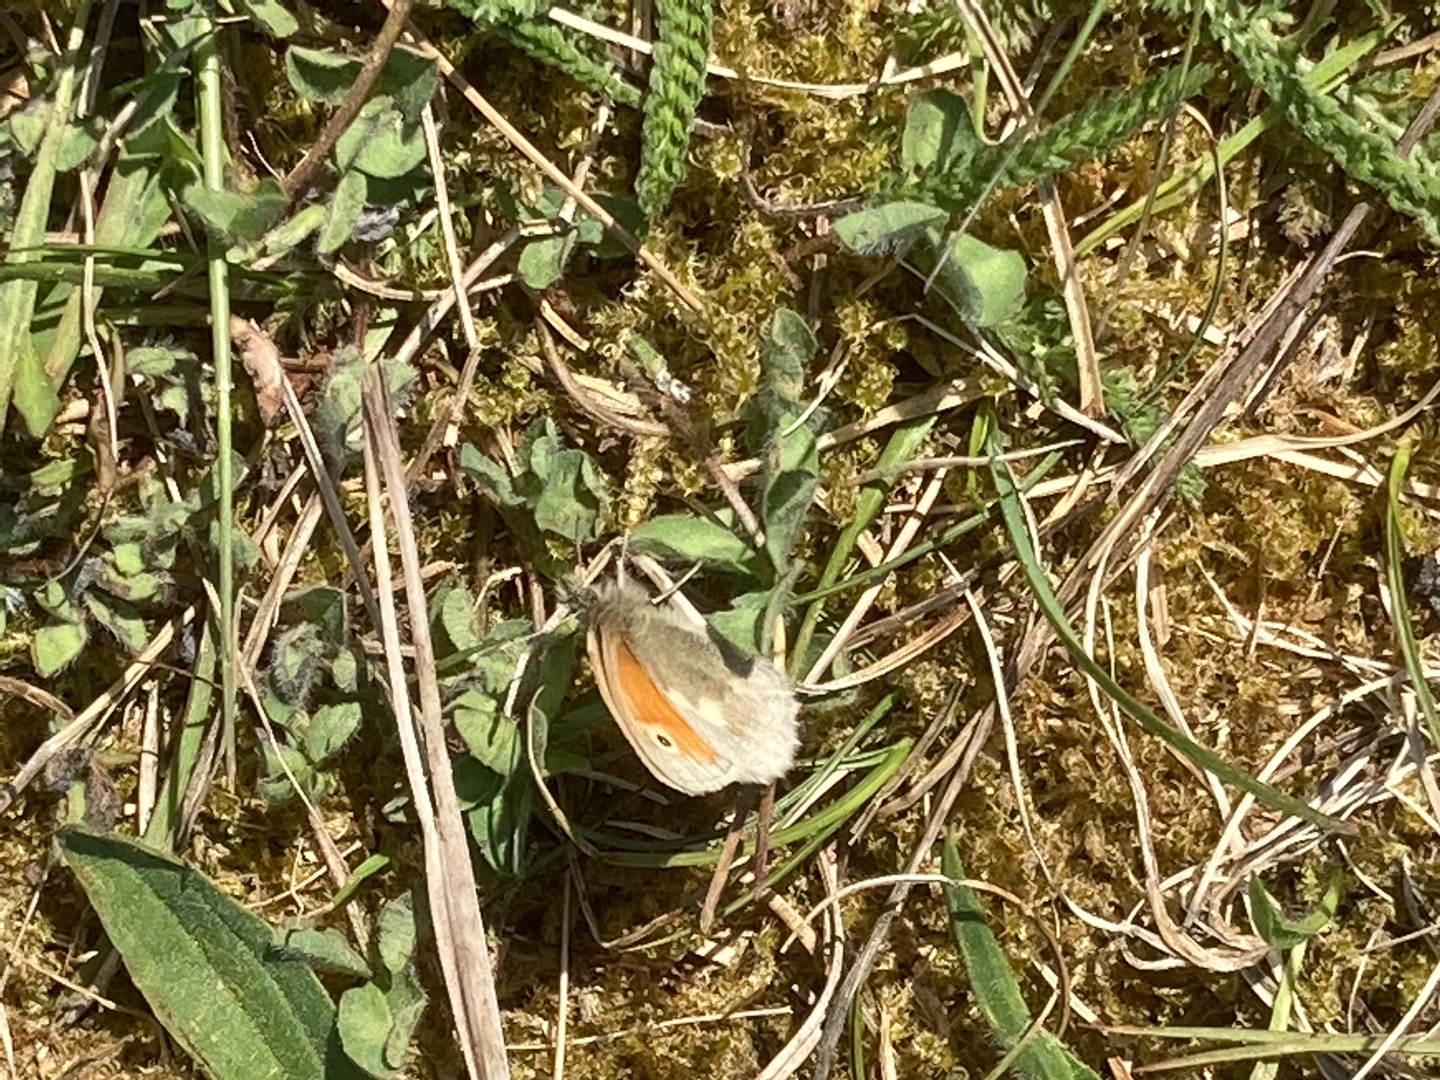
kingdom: Animalia
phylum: Arthropoda
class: Insecta
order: Lepidoptera
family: Nymphalidae
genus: Coenonympha
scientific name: Coenonympha pamphilus
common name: Okkergul randøje
